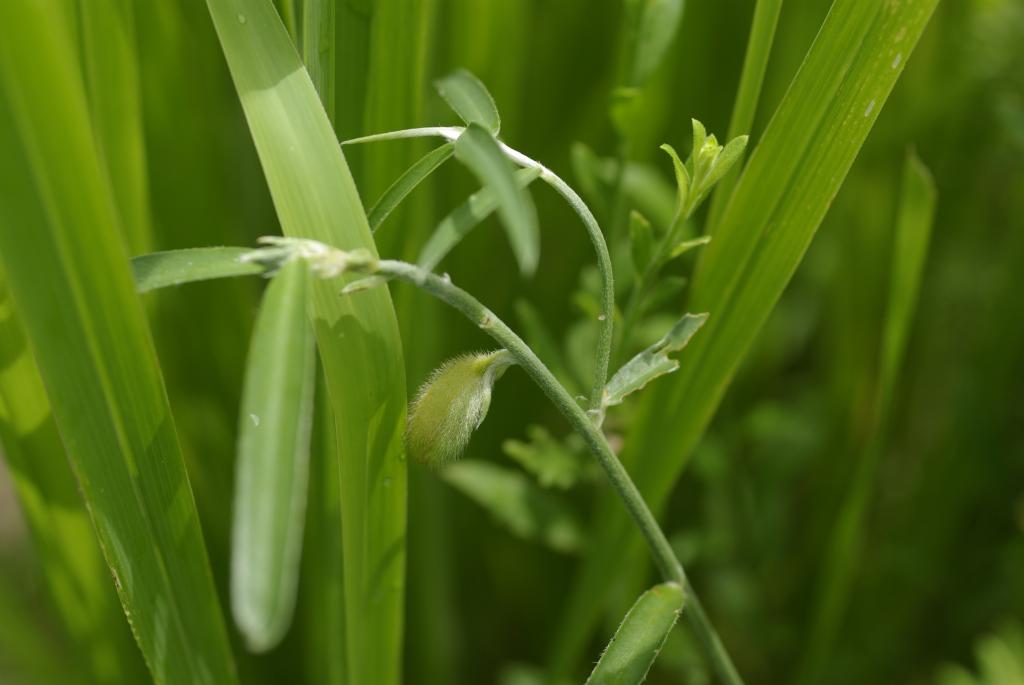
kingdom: Plantae
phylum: Tracheophyta
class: Magnoliopsida
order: Fabales
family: Fabaceae
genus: Crotalaria
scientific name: Crotalaria sessiliflora
